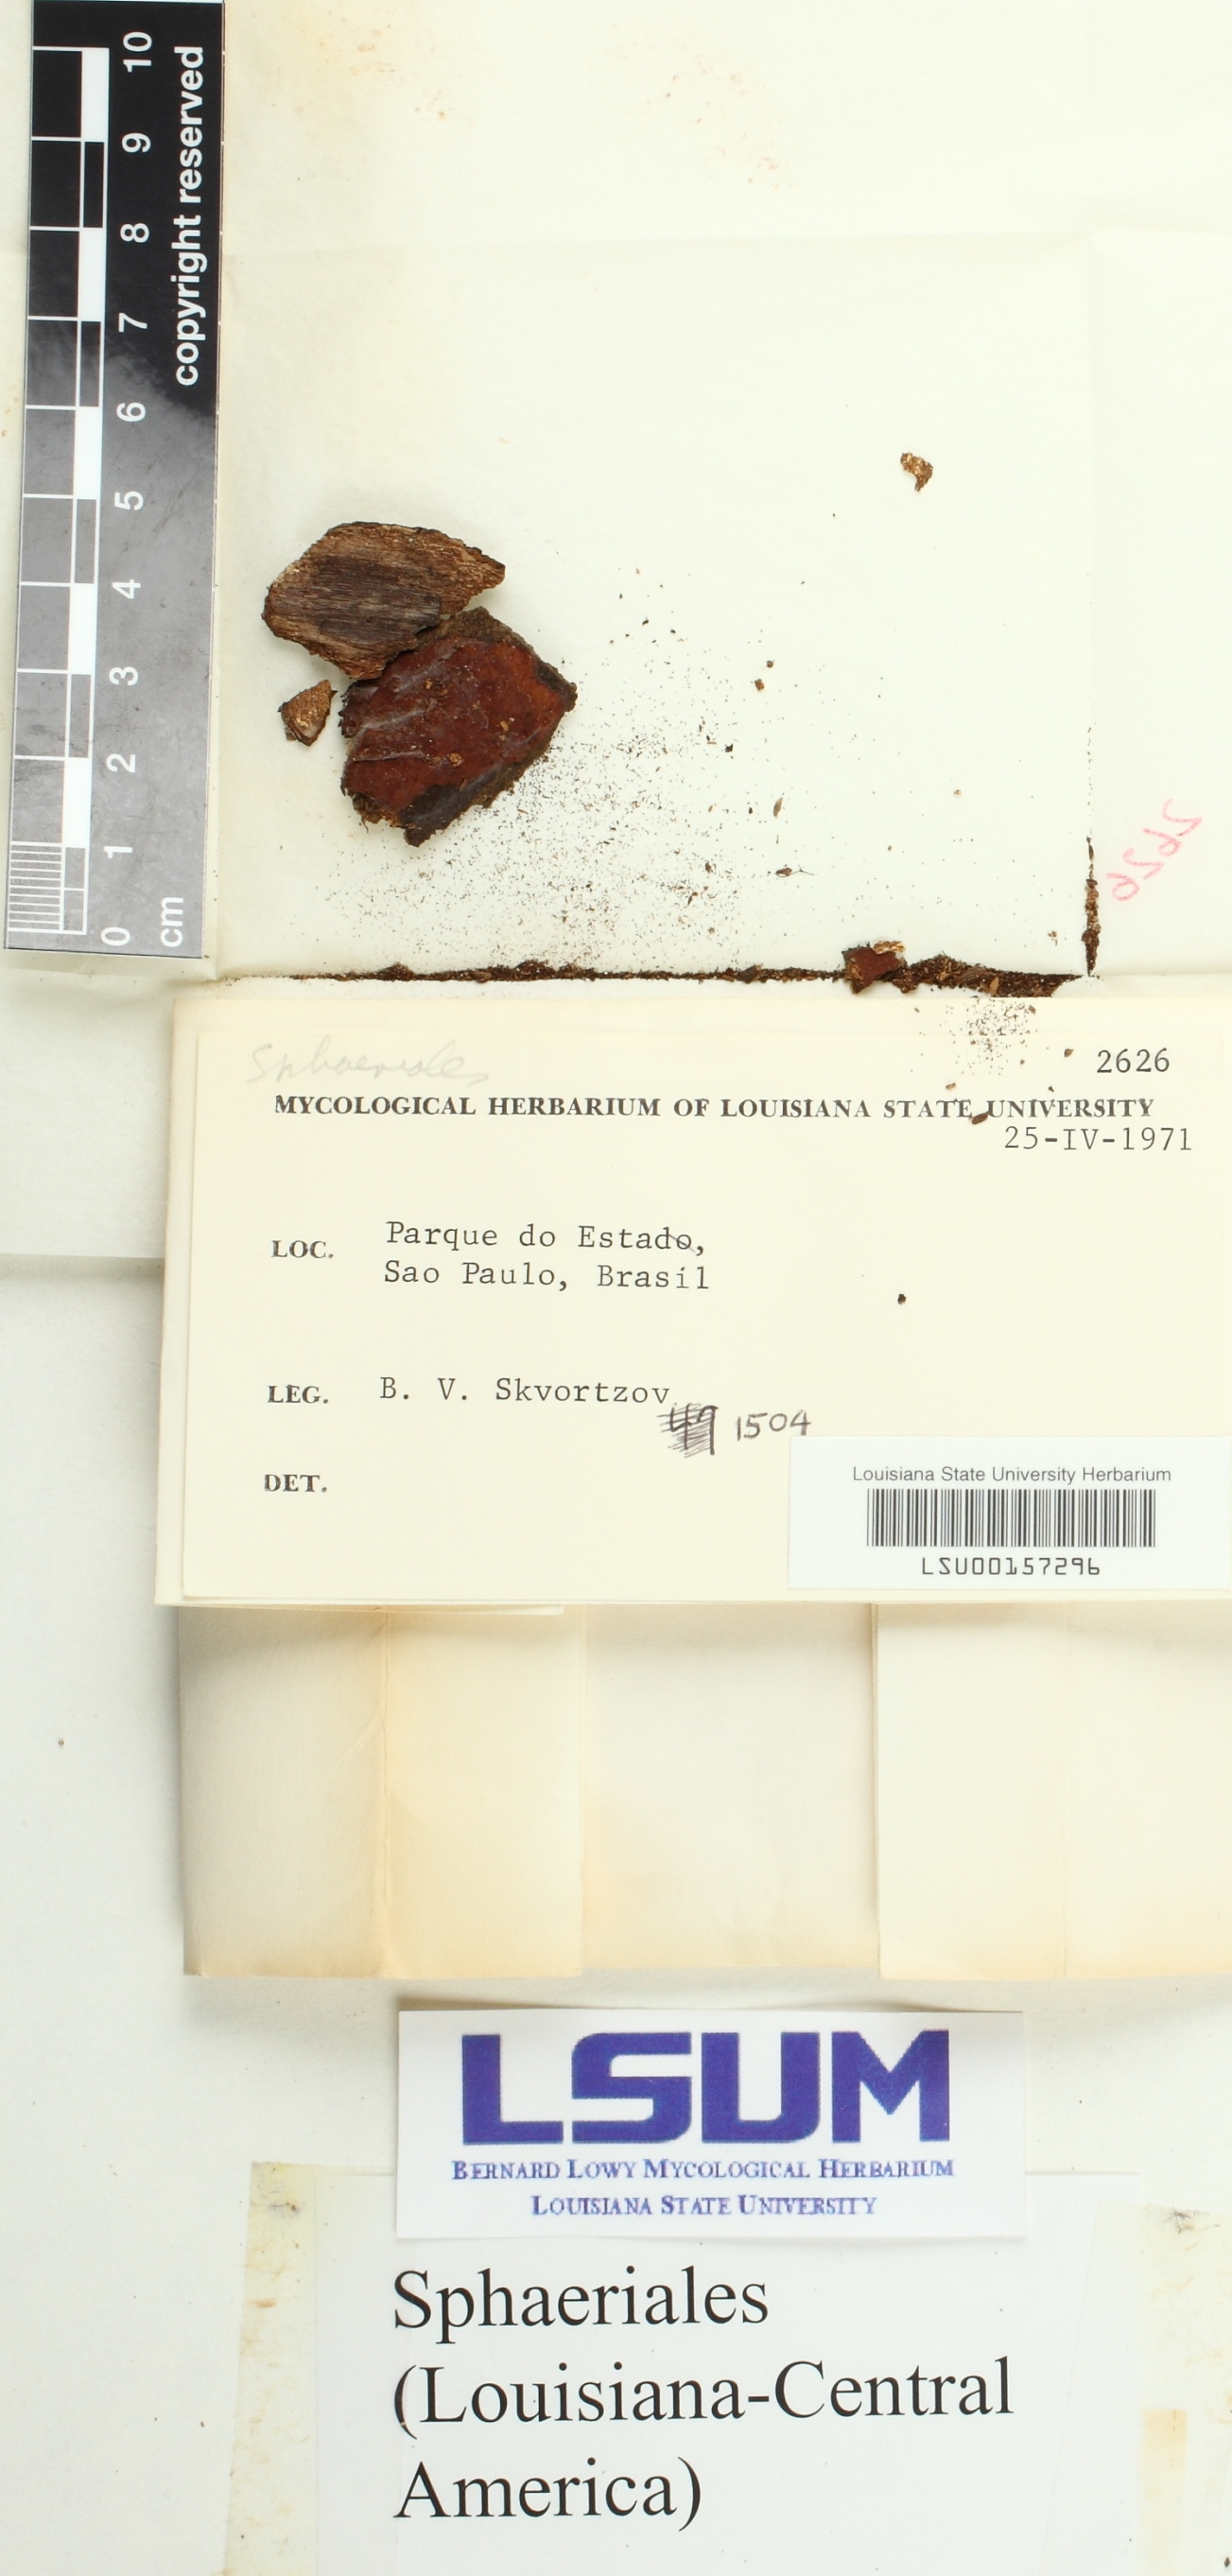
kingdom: Fungi
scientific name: Fungi
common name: Fungi
